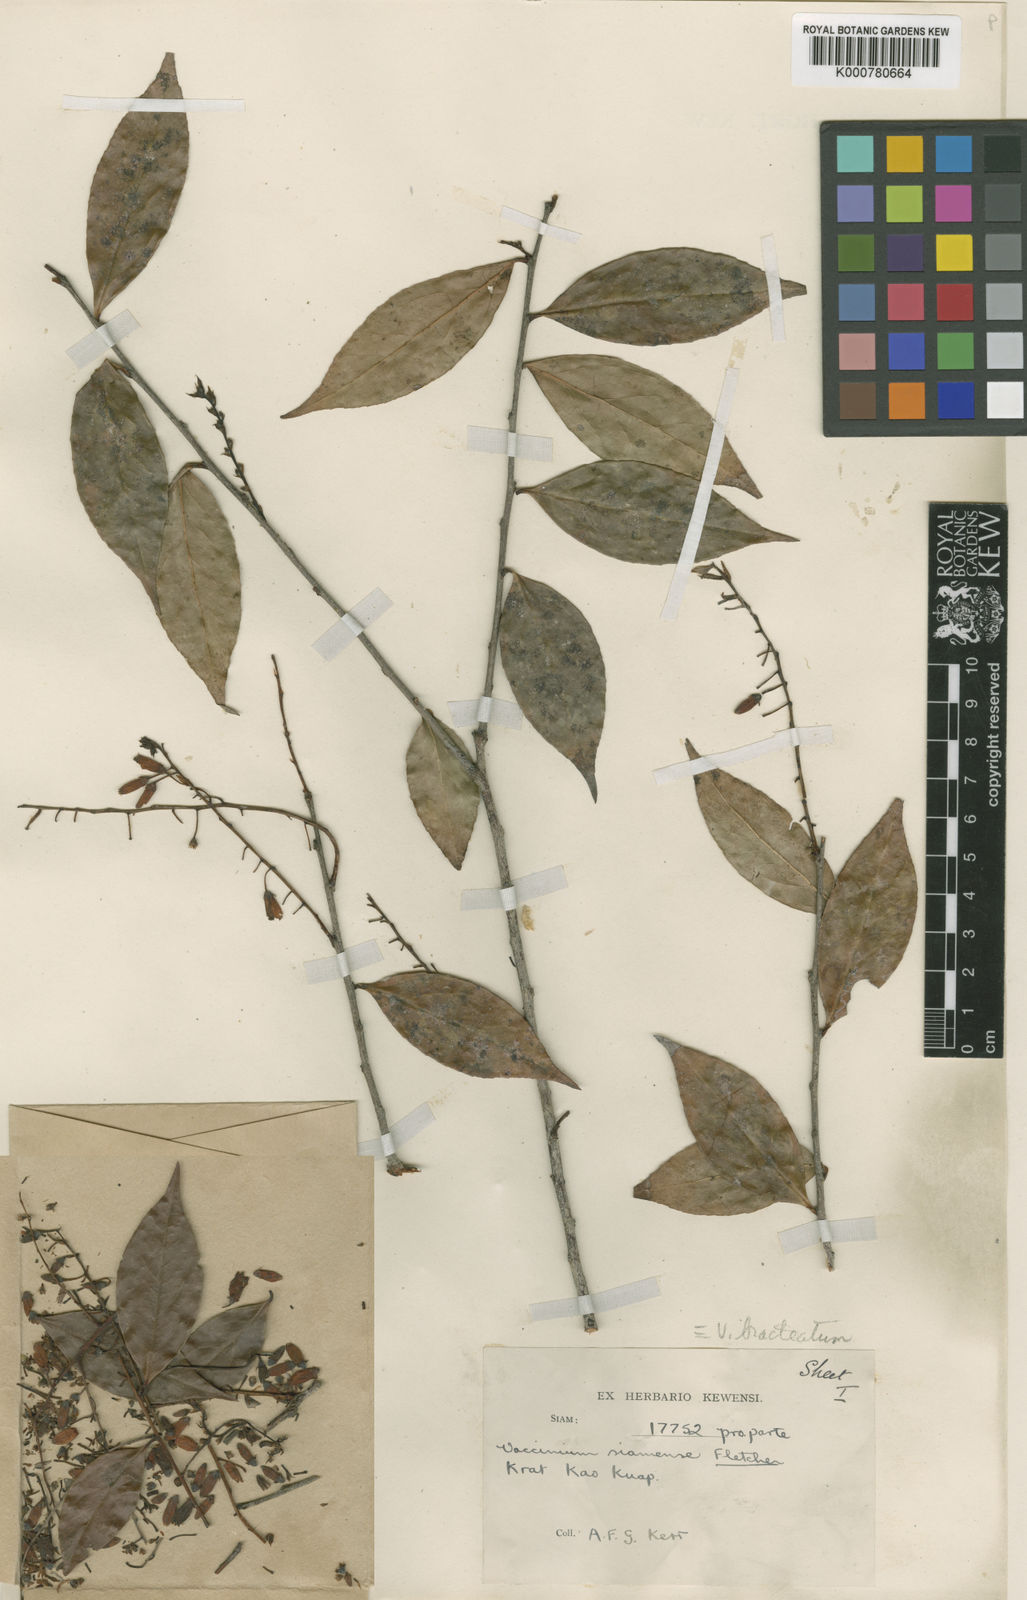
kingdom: Plantae
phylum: Tracheophyta
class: Magnoliopsida
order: Ericales
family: Ericaceae
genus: Vaccinium
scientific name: Vaccinium sprengelii
